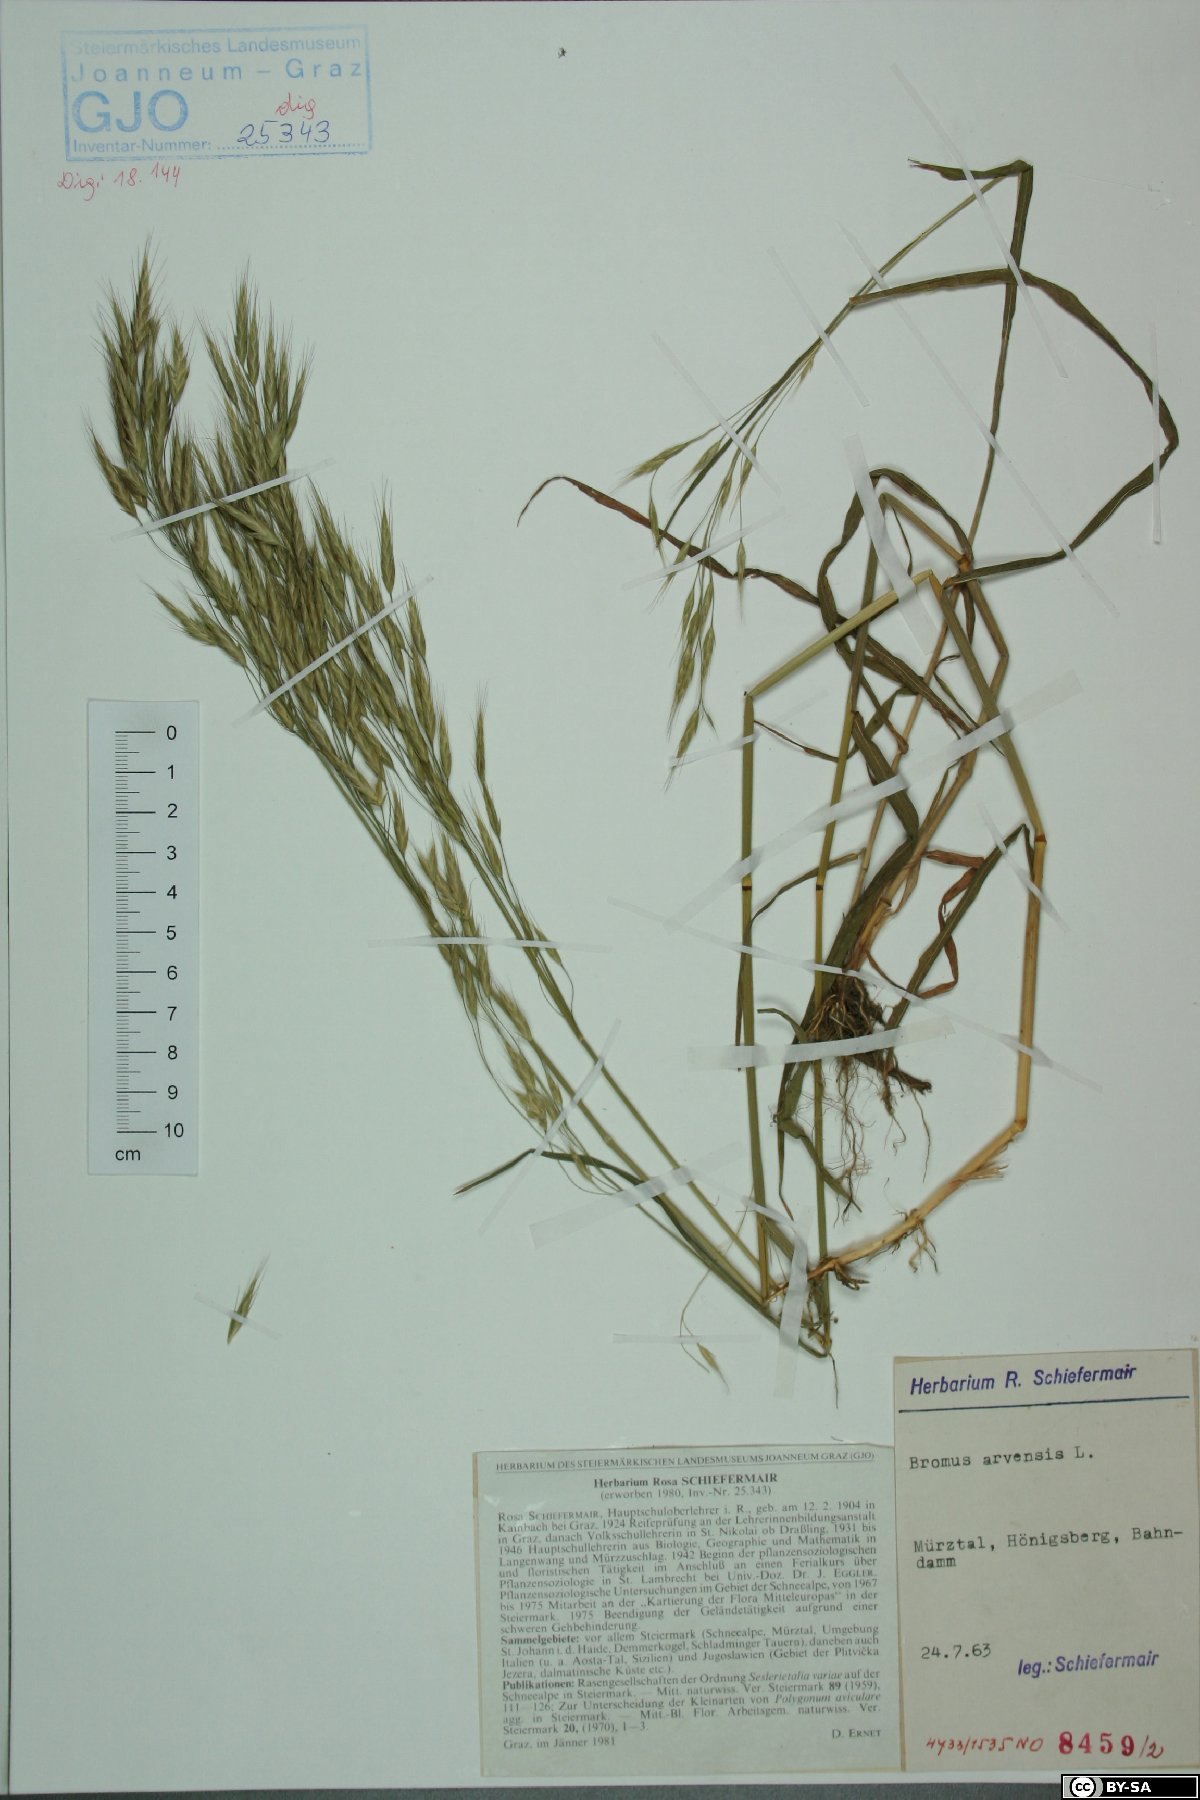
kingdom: Plantae
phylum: Tracheophyta
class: Liliopsida
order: Poales
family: Poaceae
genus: Bromus
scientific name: Bromus arvensis
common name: Field brome
